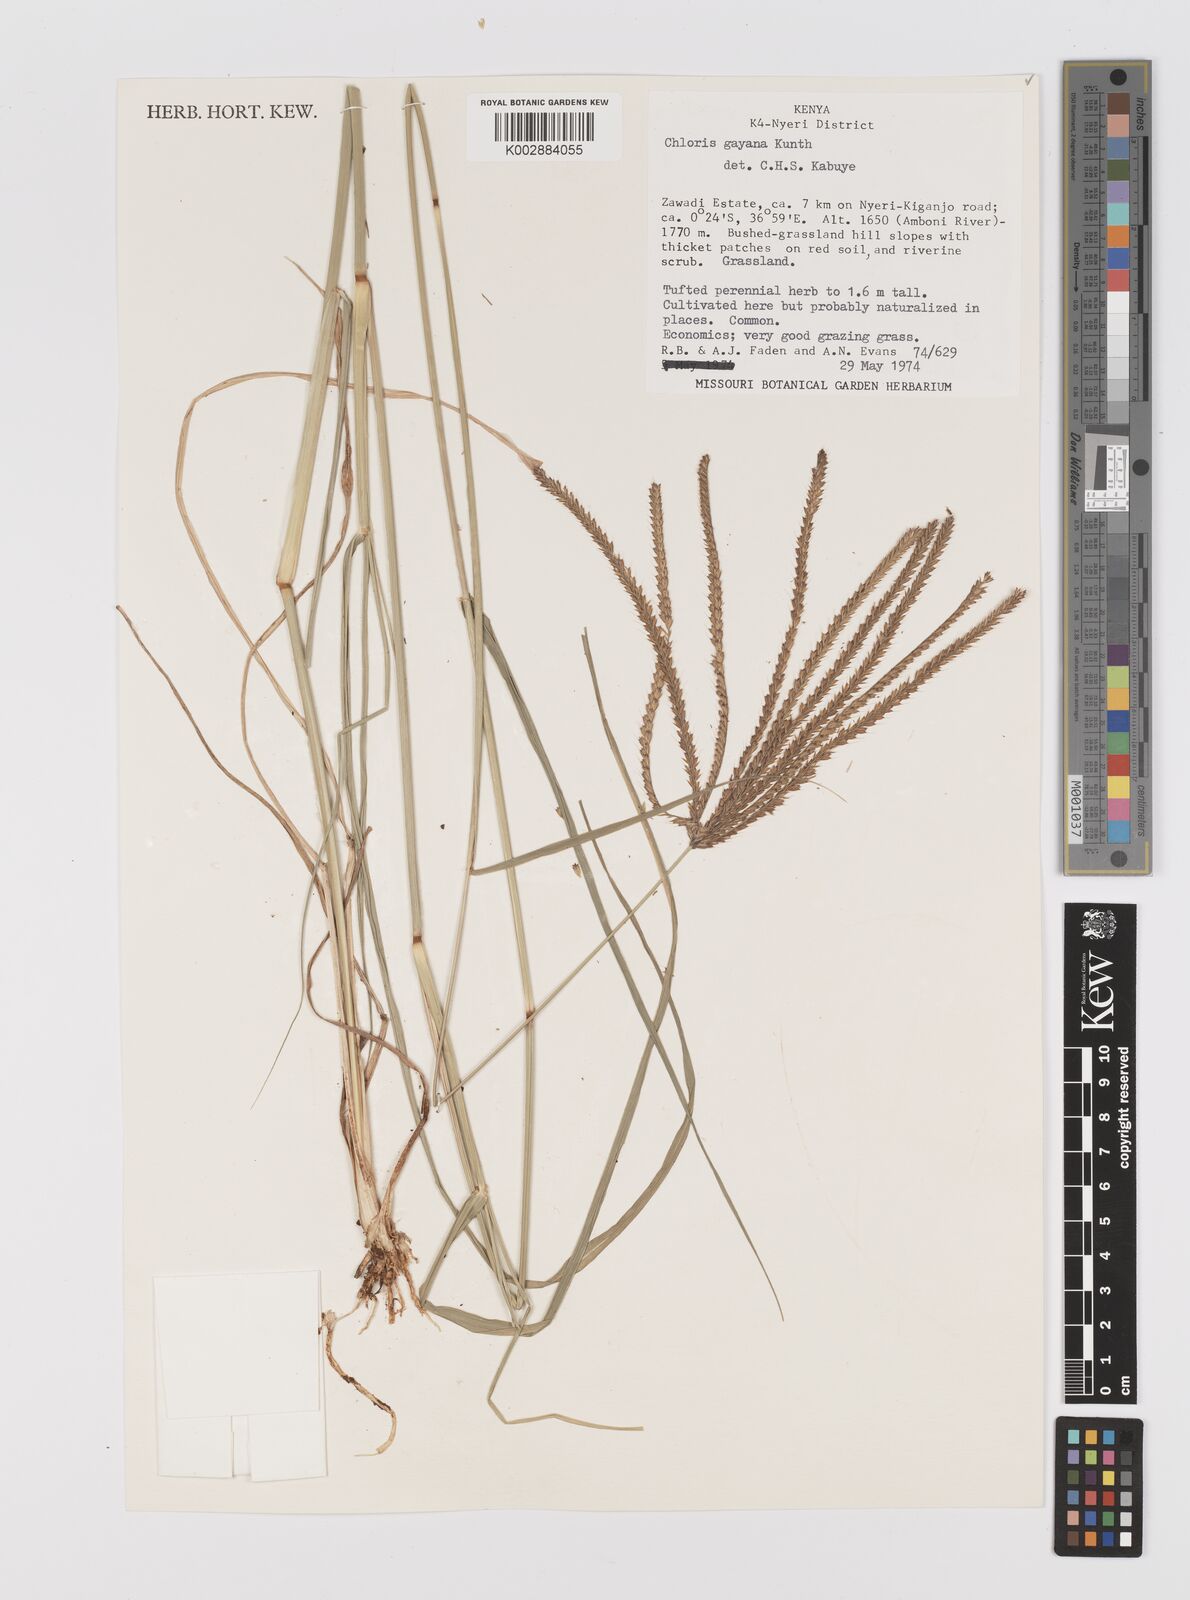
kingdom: Plantae
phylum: Tracheophyta
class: Liliopsida
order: Poales
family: Poaceae
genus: Chloris
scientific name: Chloris gayana
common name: Rhodes grass
